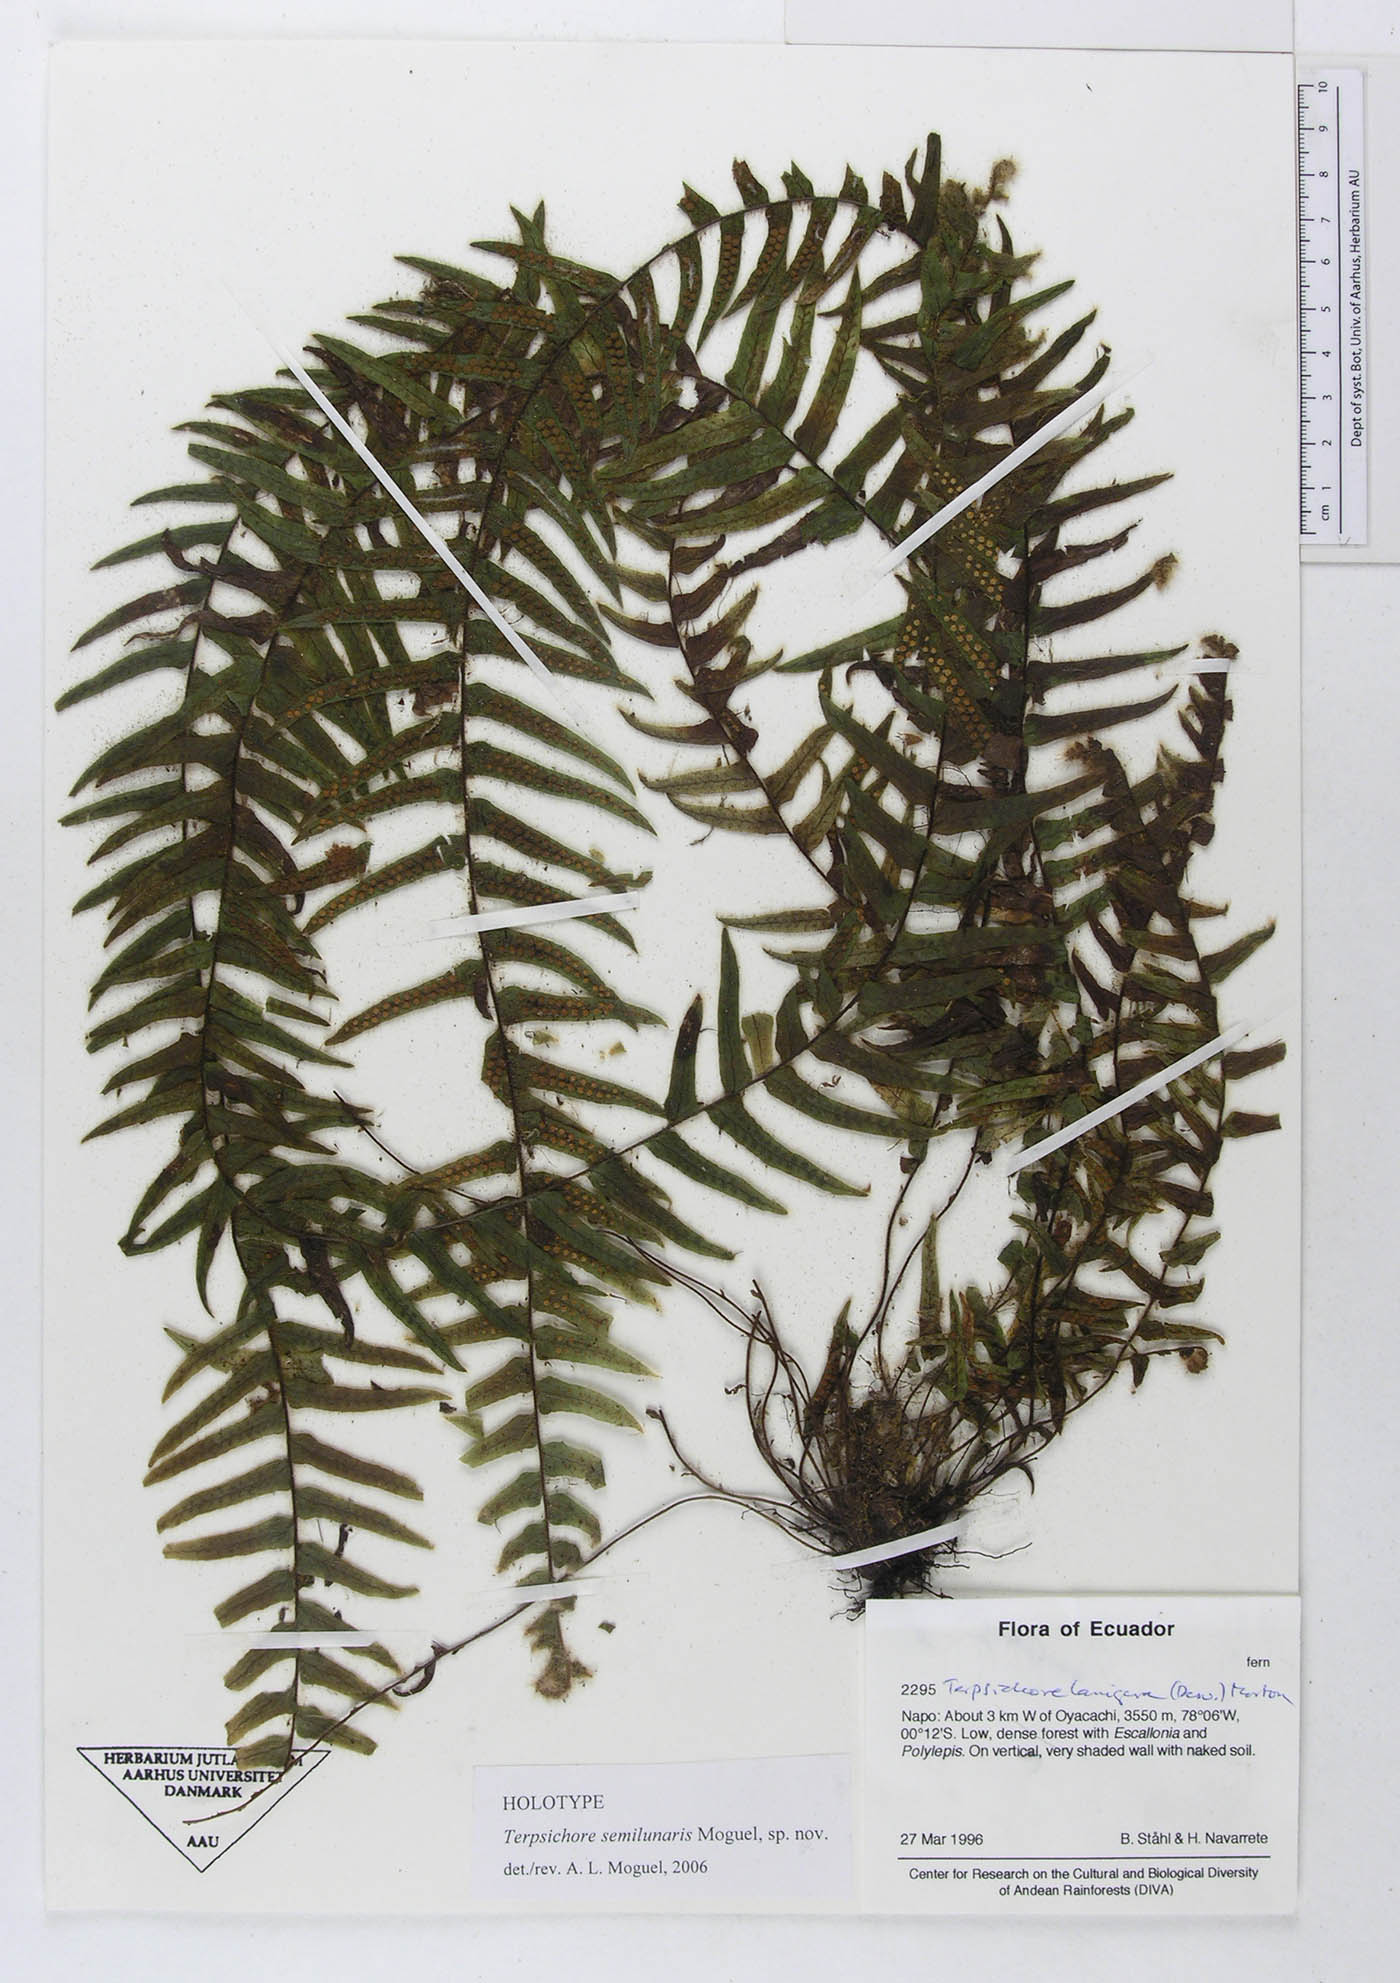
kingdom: Plantae
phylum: Tracheophyta
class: Polypodiopsida
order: Polypodiales
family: Polypodiaceae
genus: Alansmia
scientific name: Alansmia semilunaris
